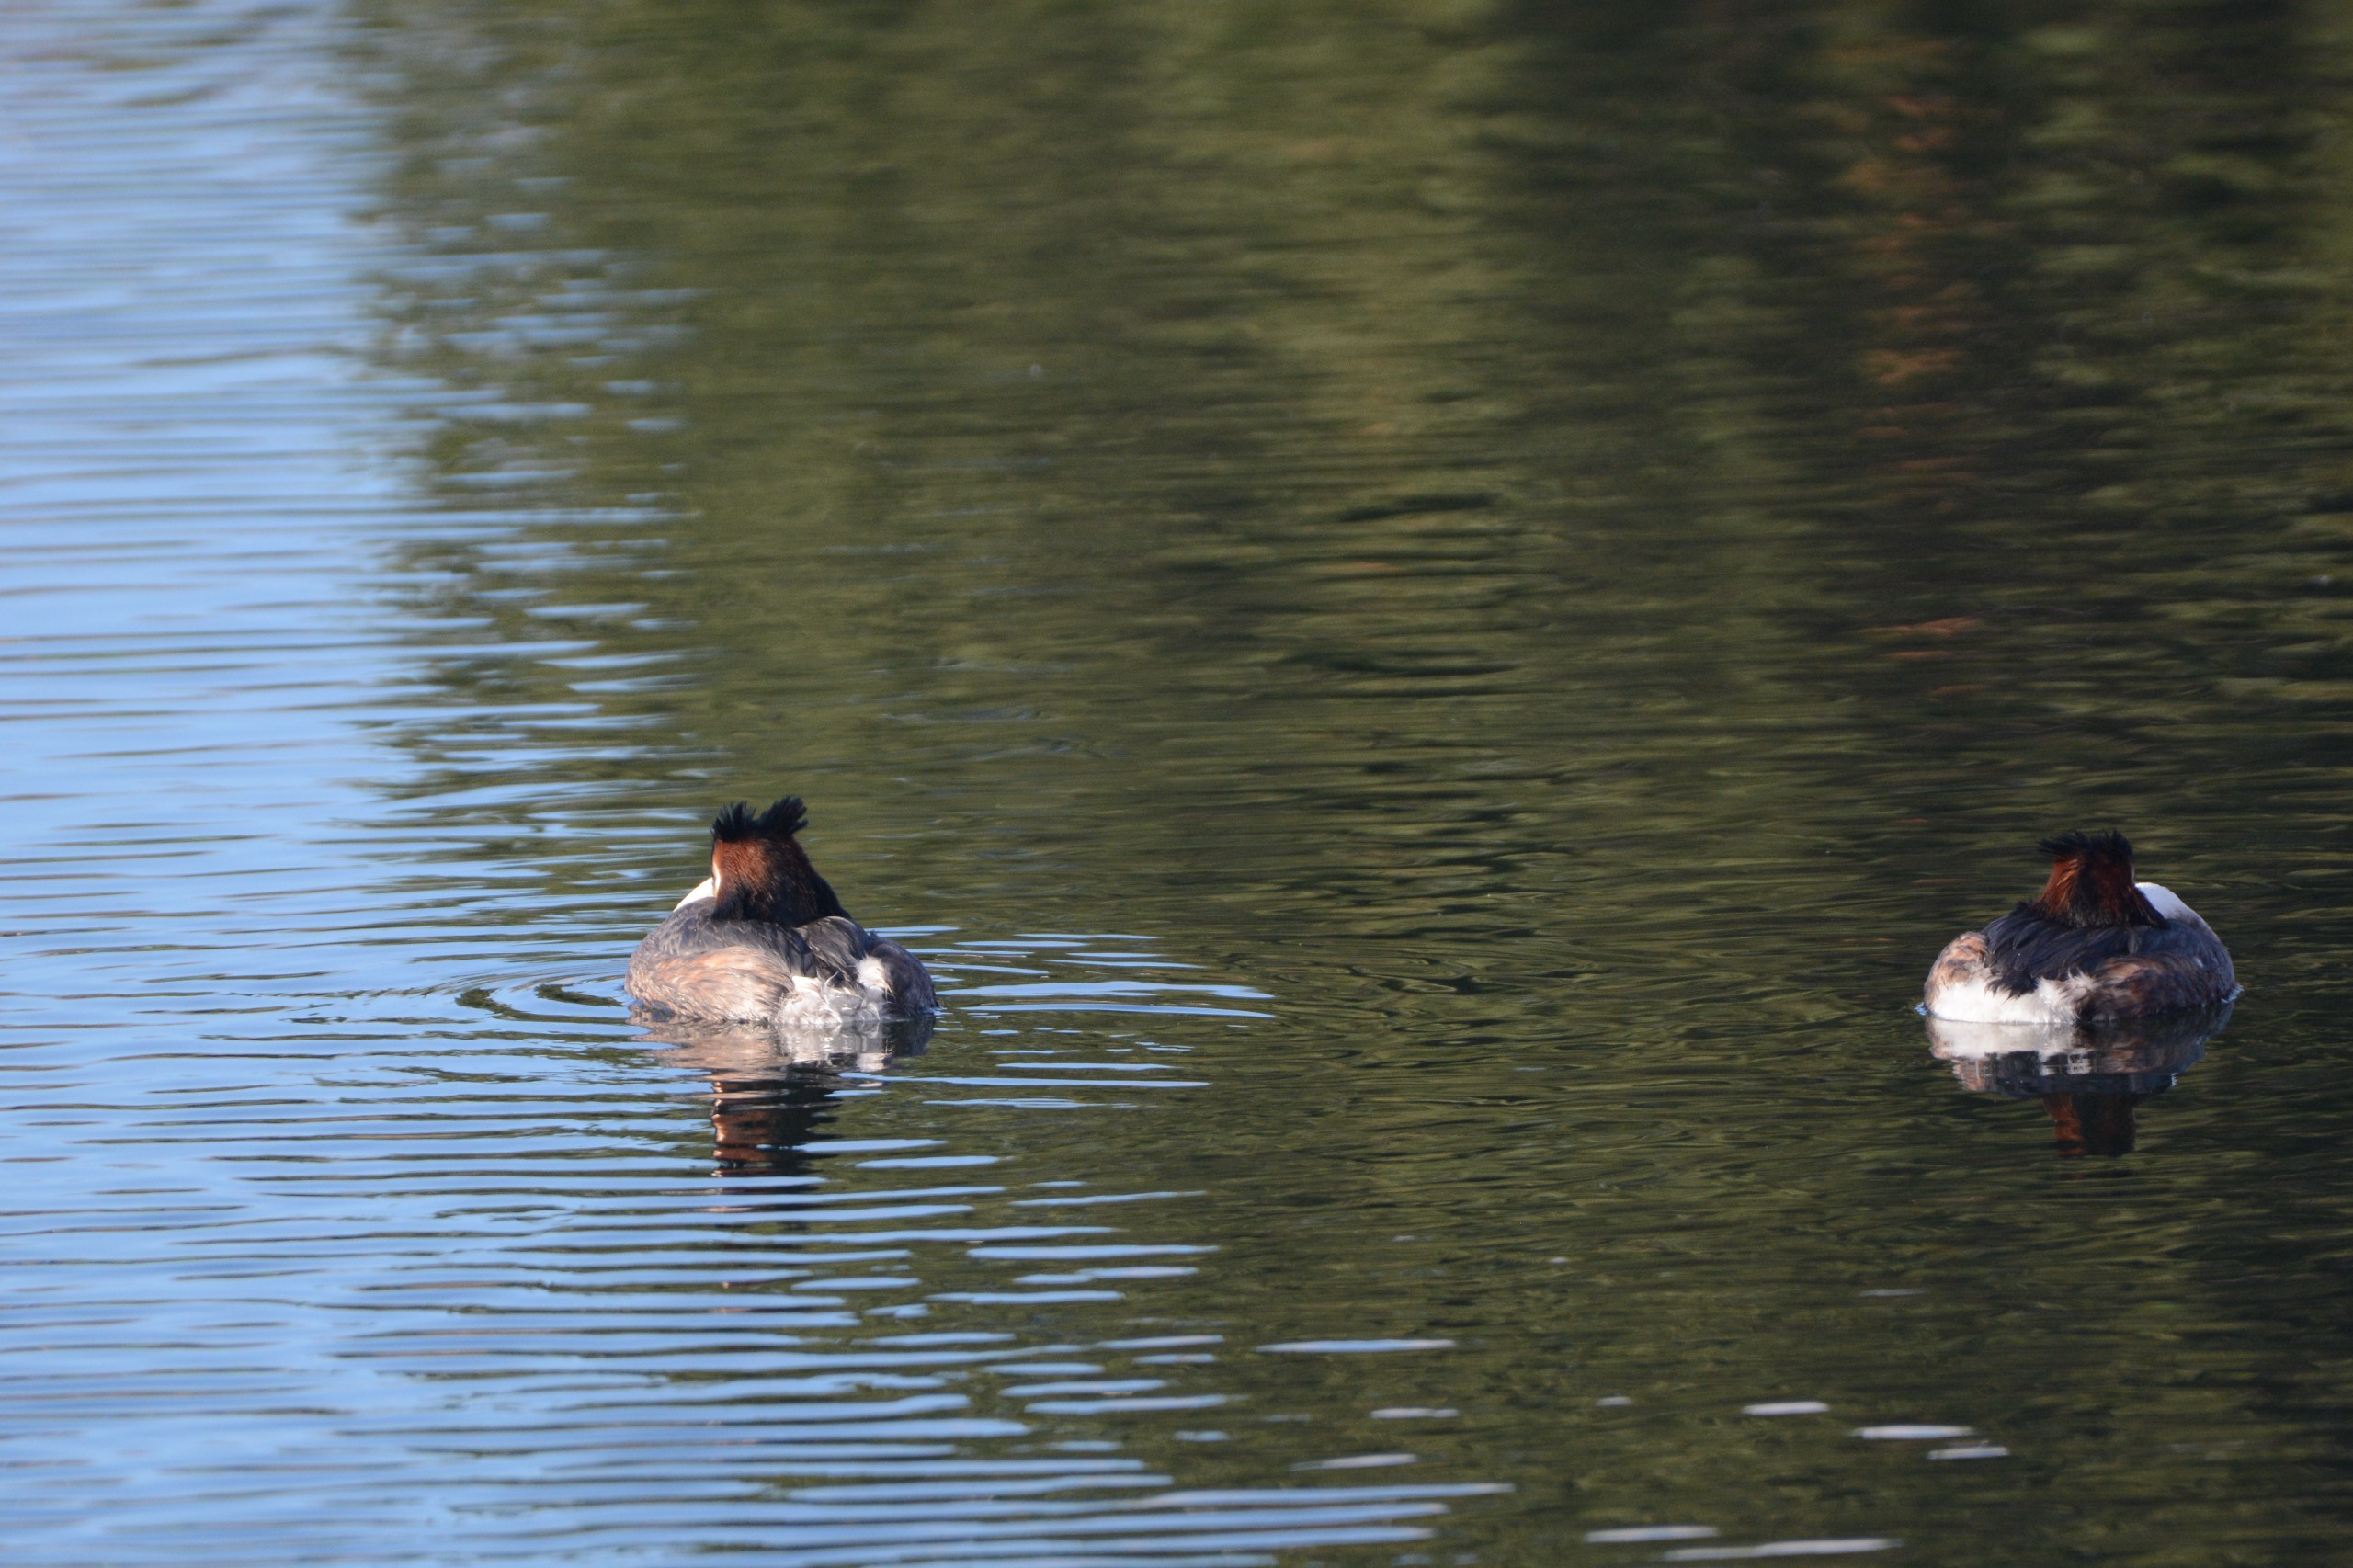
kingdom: Animalia
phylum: Chordata
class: Aves
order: Podicipediformes
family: Podicipedidae
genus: Podiceps
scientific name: Podiceps cristatus
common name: Toppet lappedykker
